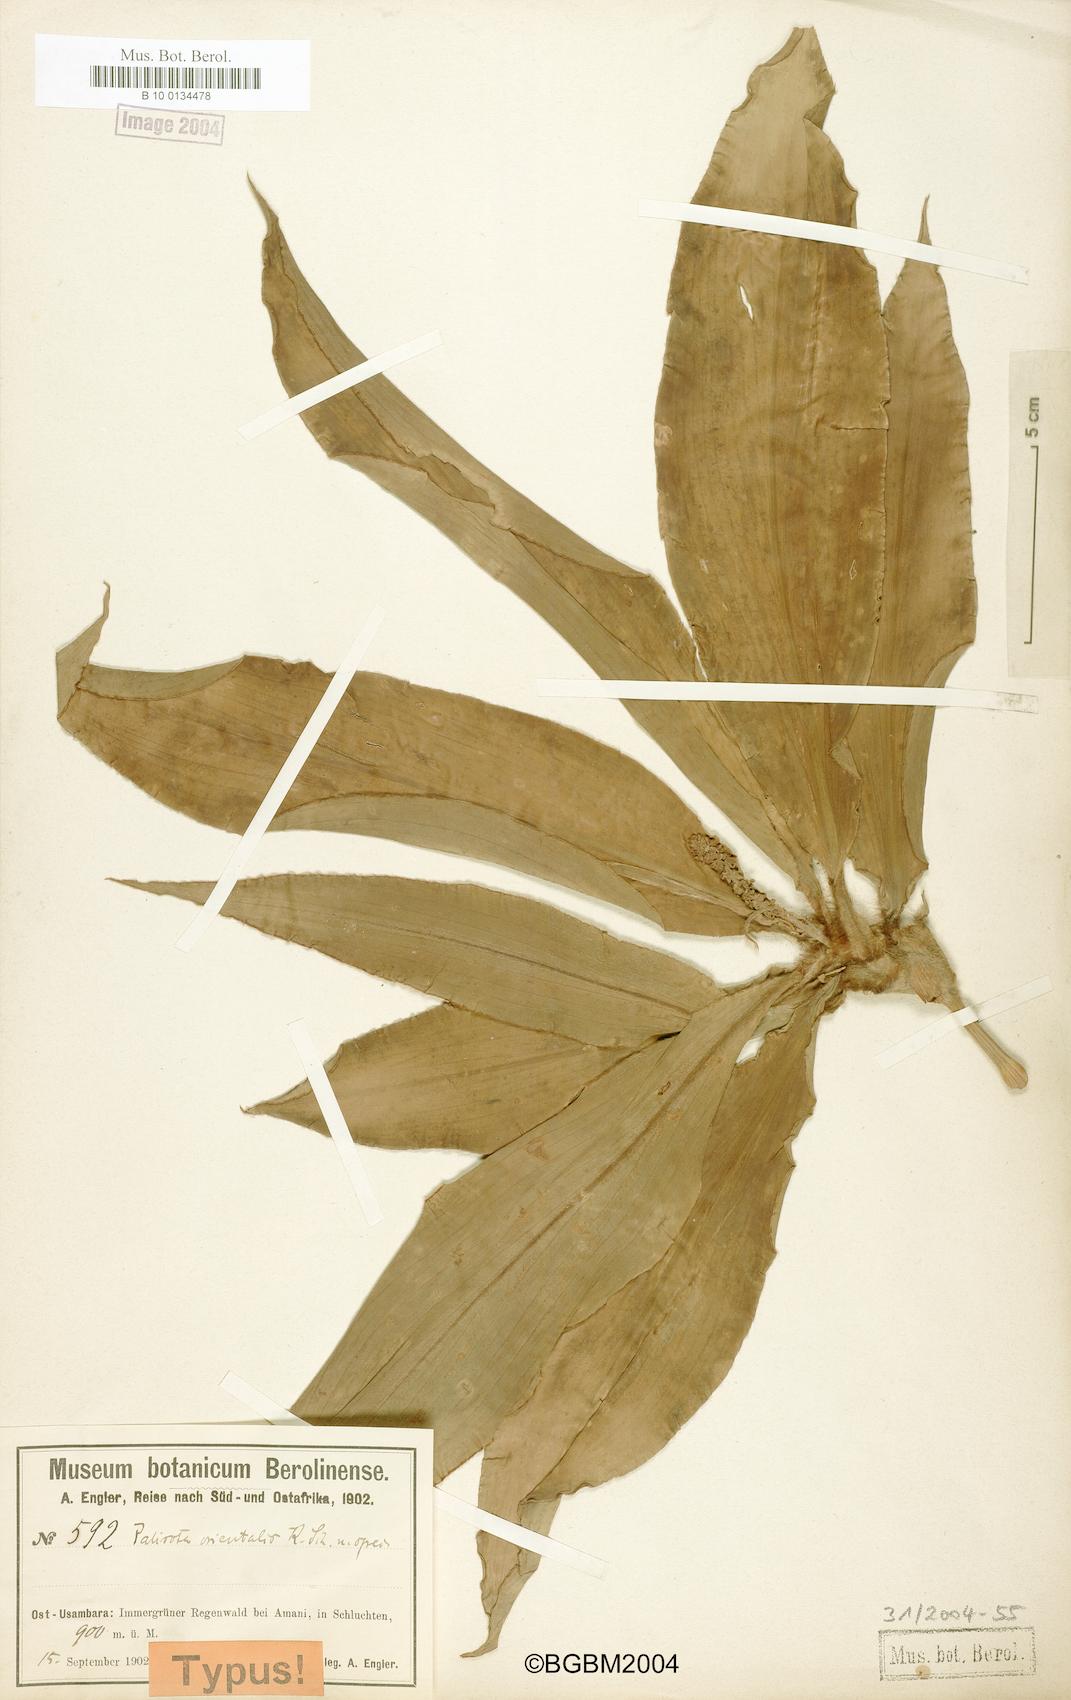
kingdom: Plantae
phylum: Tracheophyta
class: Liliopsida
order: Commelinales
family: Commelinaceae
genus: Palisota
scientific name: Palisota orientalis
